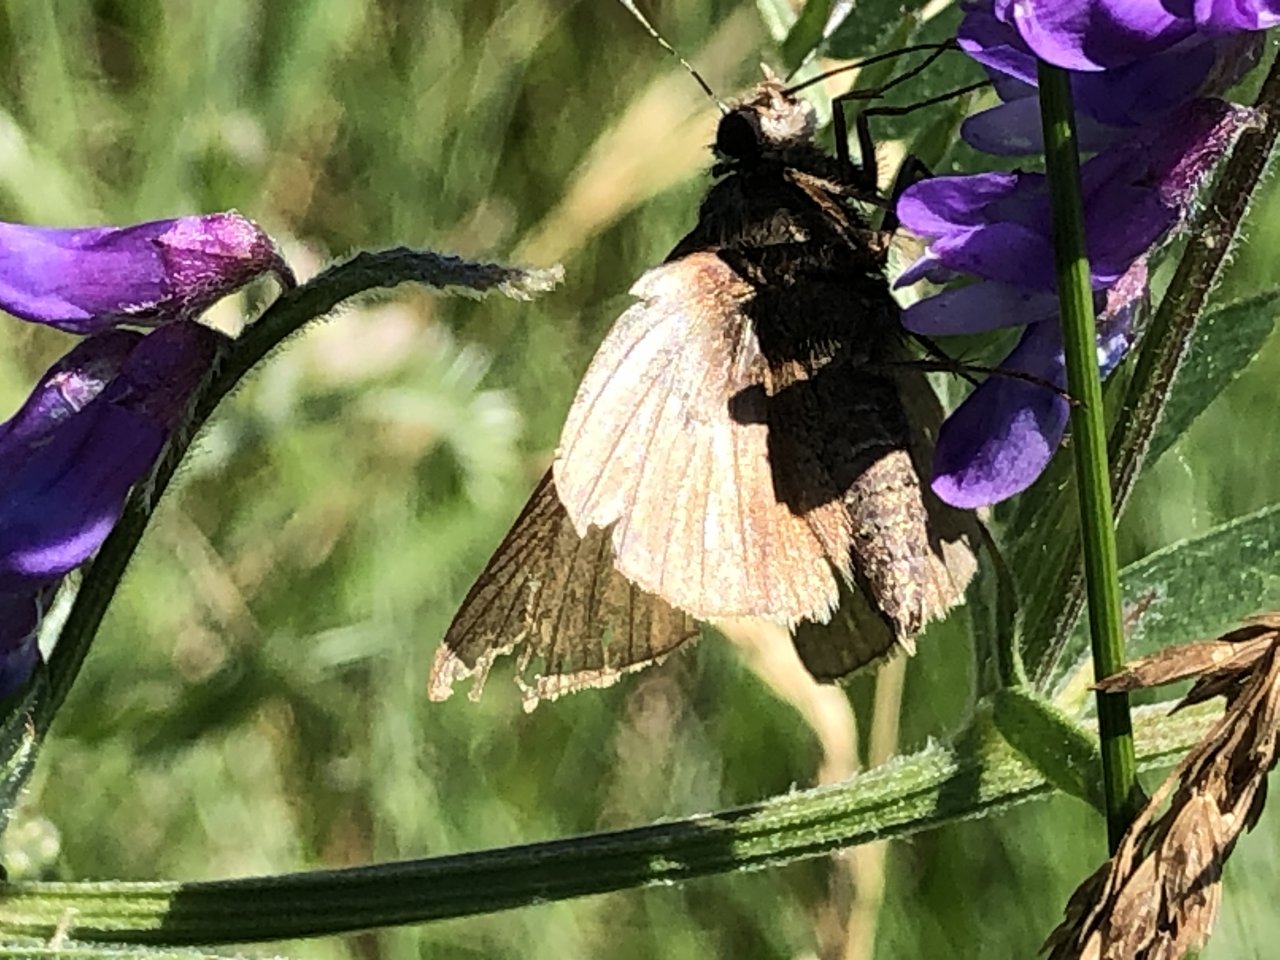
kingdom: Animalia
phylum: Arthropoda
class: Insecta
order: Lepidoptera
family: Hesperiidae
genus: Atrytonopsis
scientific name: Atrytonopsis hianna
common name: Dusted Skipper
